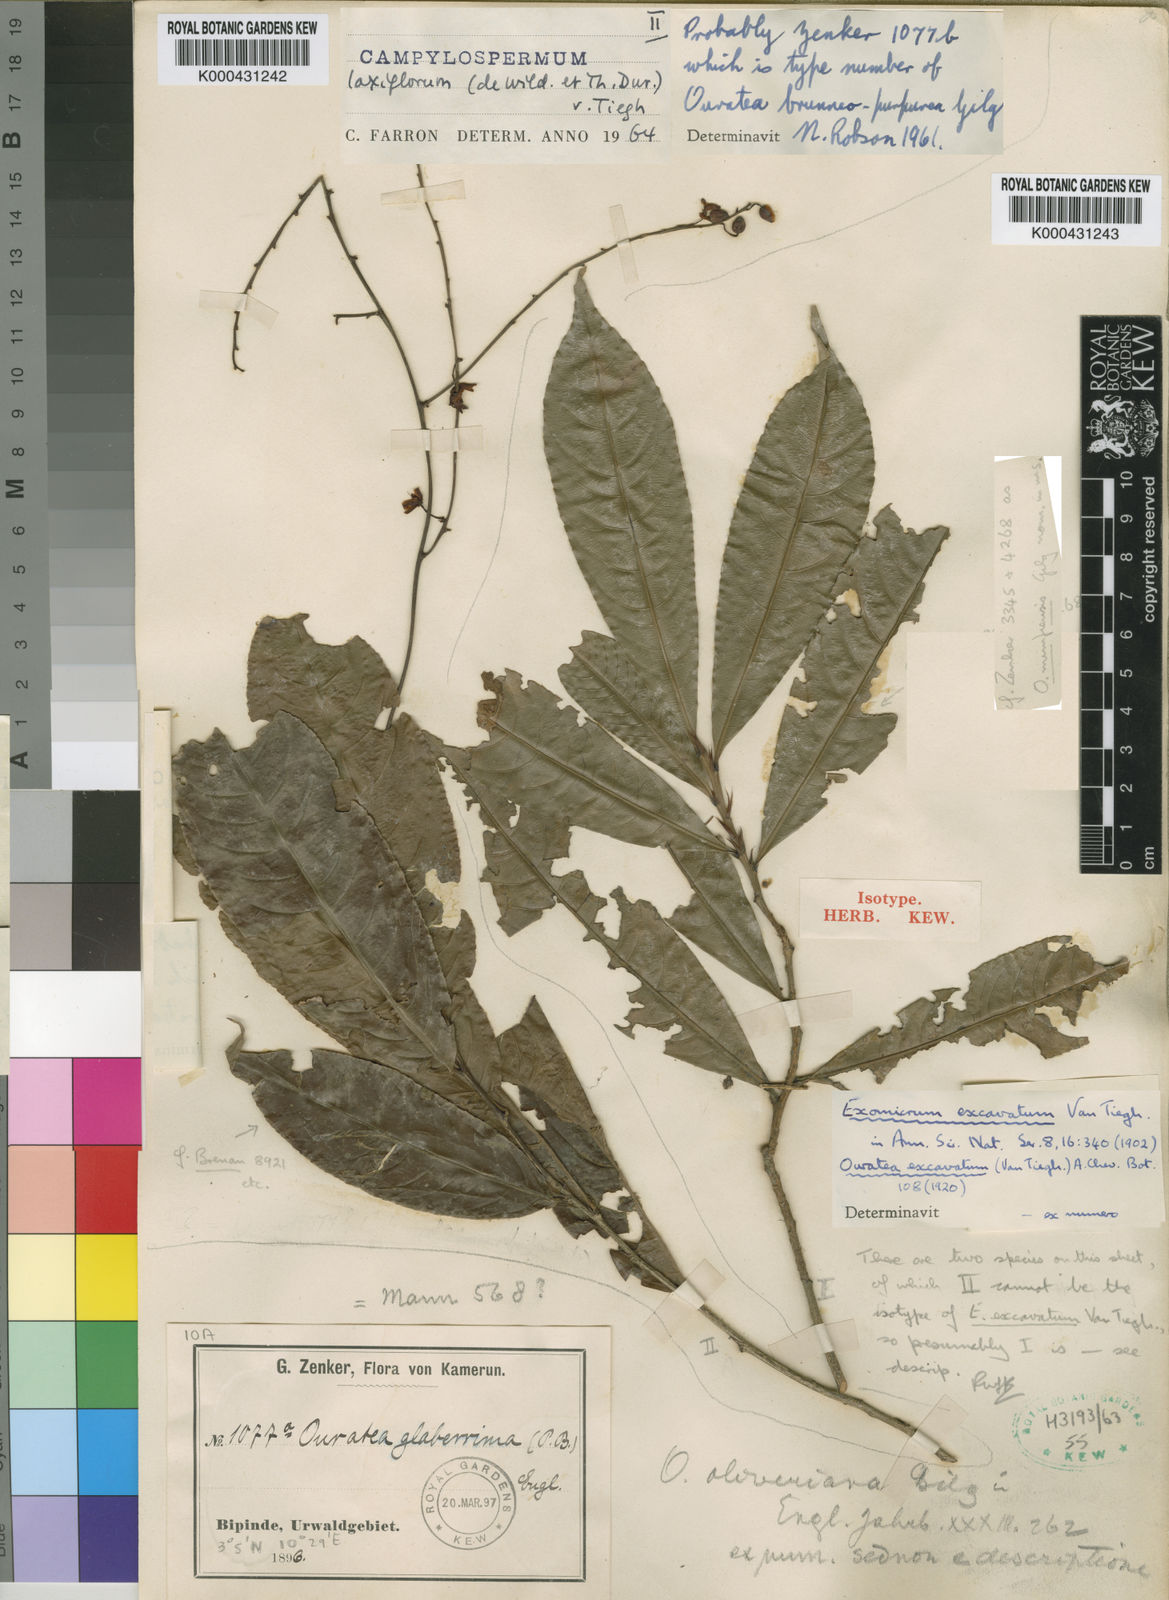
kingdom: Plantae
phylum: Tracheophyta
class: Magnoliopsida
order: Malpighiales
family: Ochnaceae
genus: Campylospermum
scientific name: Campylospermum laxiflorum
